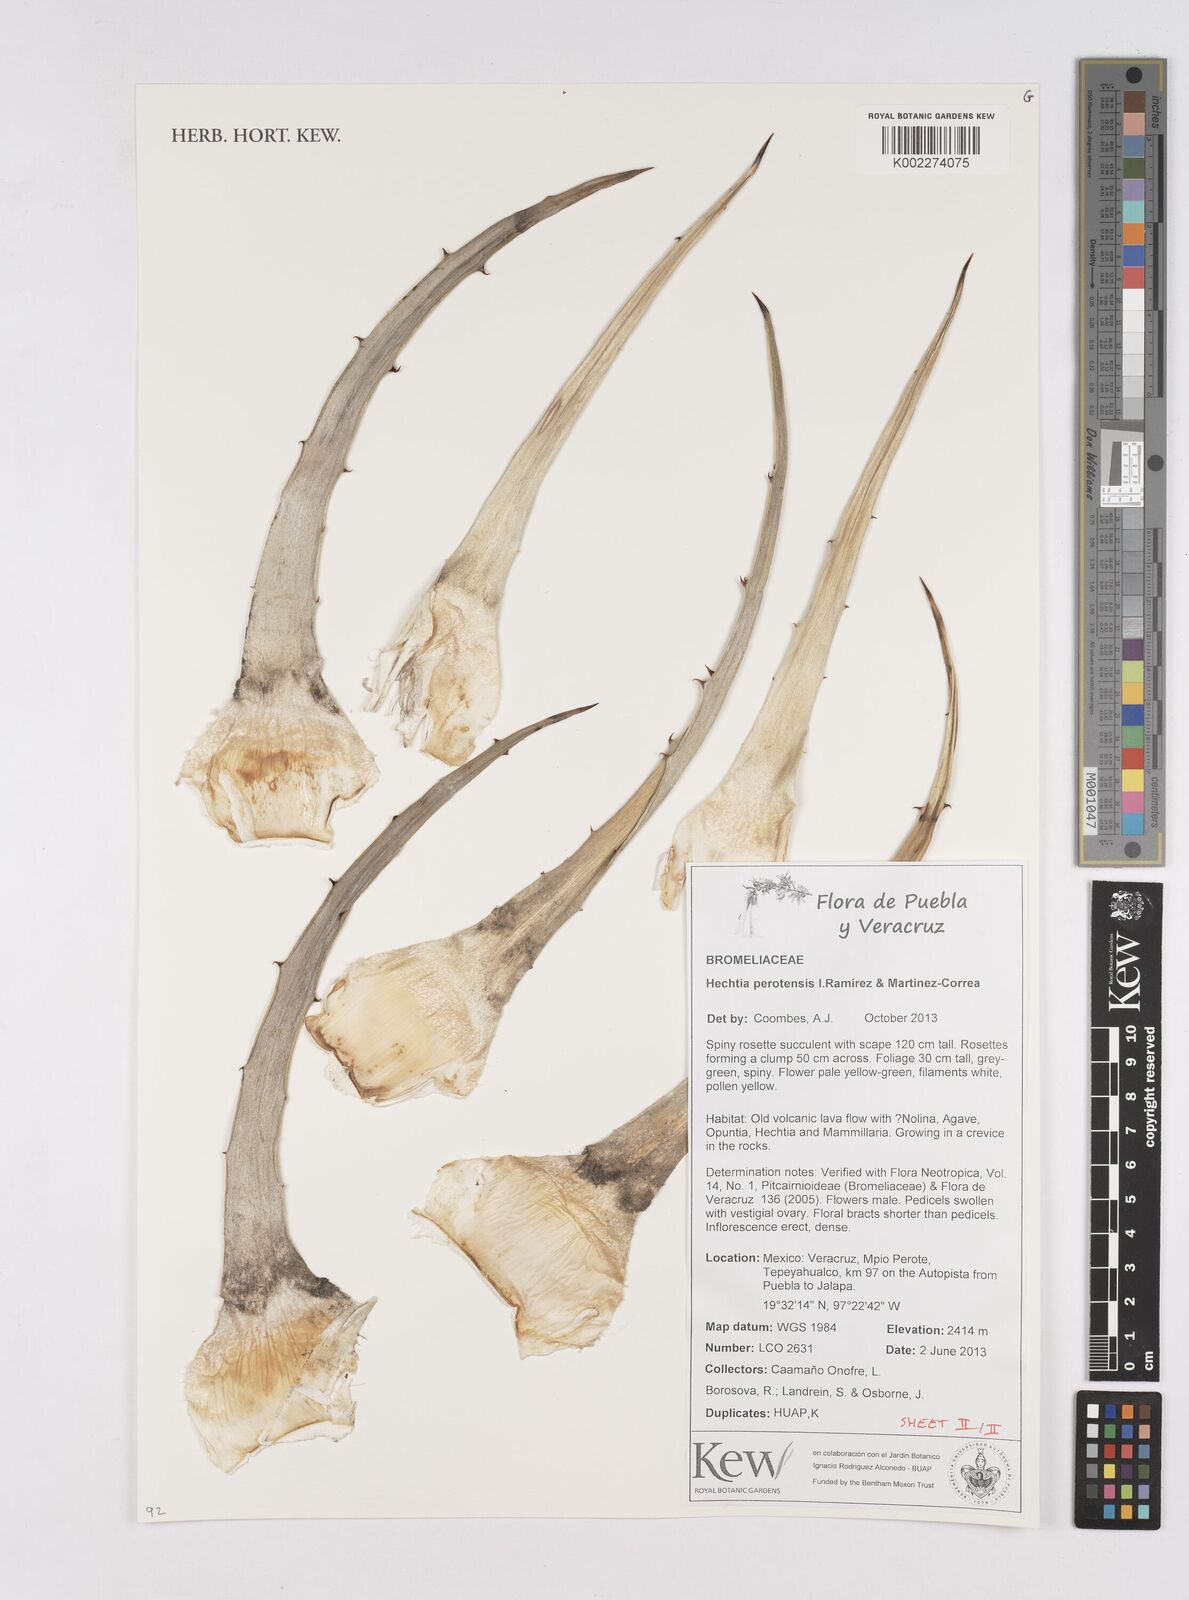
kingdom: Plantae
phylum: Tracheophyta
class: Liliopsida
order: Poales
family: Bromeliaceae
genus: Hechtia
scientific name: Hechtia perotensis
